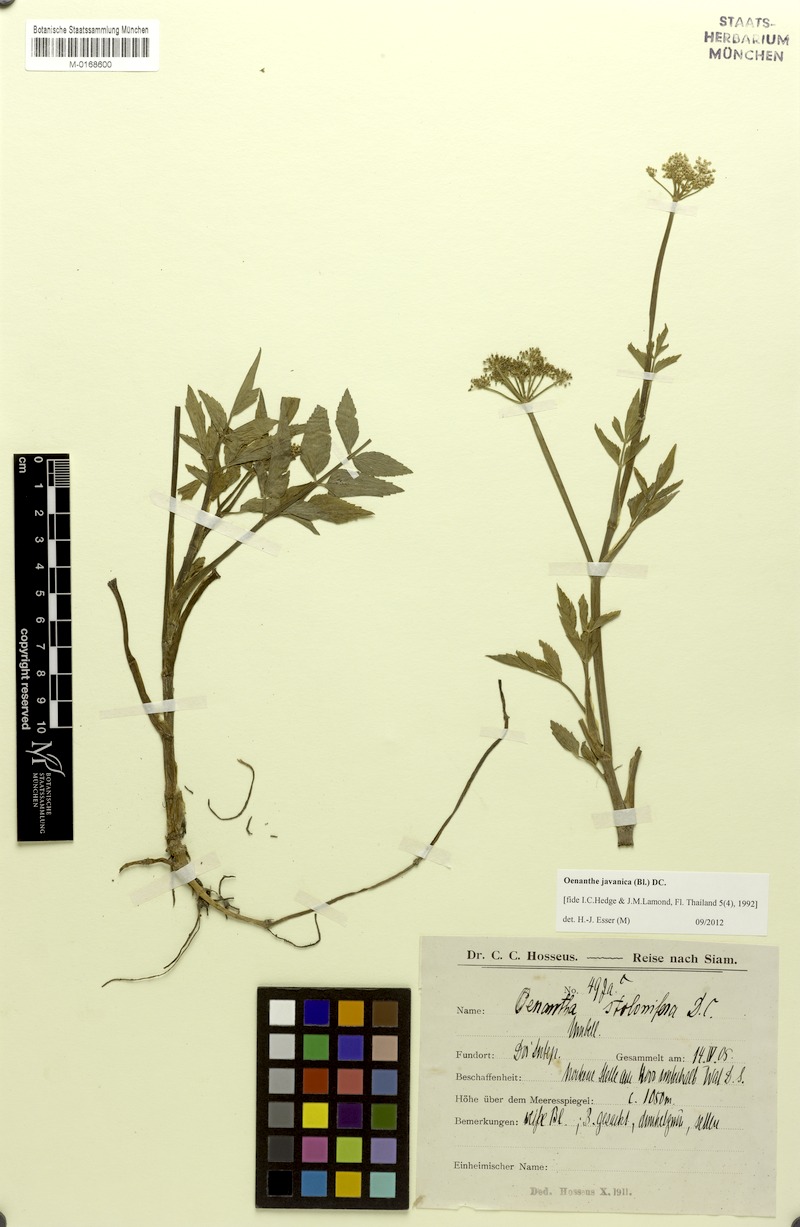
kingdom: Plantae
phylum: Tracheophyta
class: Magnoliopsida
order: Apiales
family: Apiaceae
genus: Oenanthe
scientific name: Oenanthe javanica
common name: Java water-dropwort
